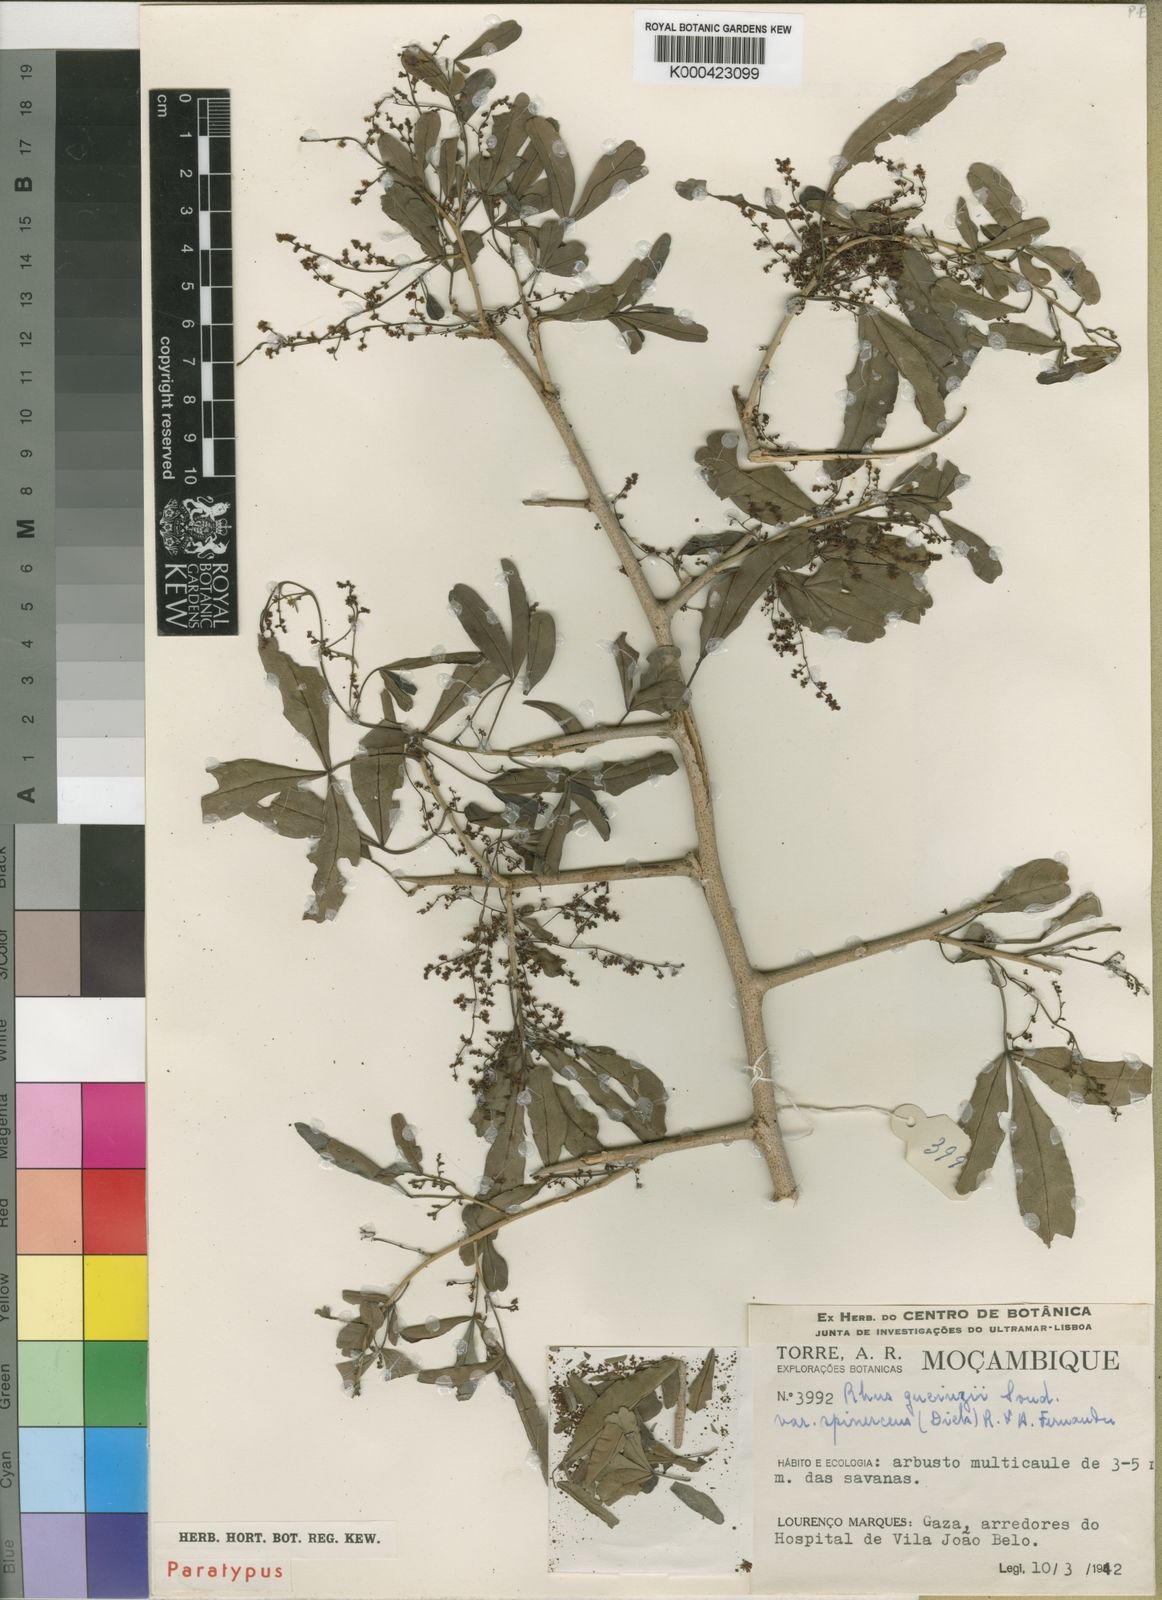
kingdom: Plantae
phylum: Tracheophyta
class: Magnoliopsida
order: Sapindales
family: Anacardiaceae
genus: Searsia
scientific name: Searsia gueinzii
